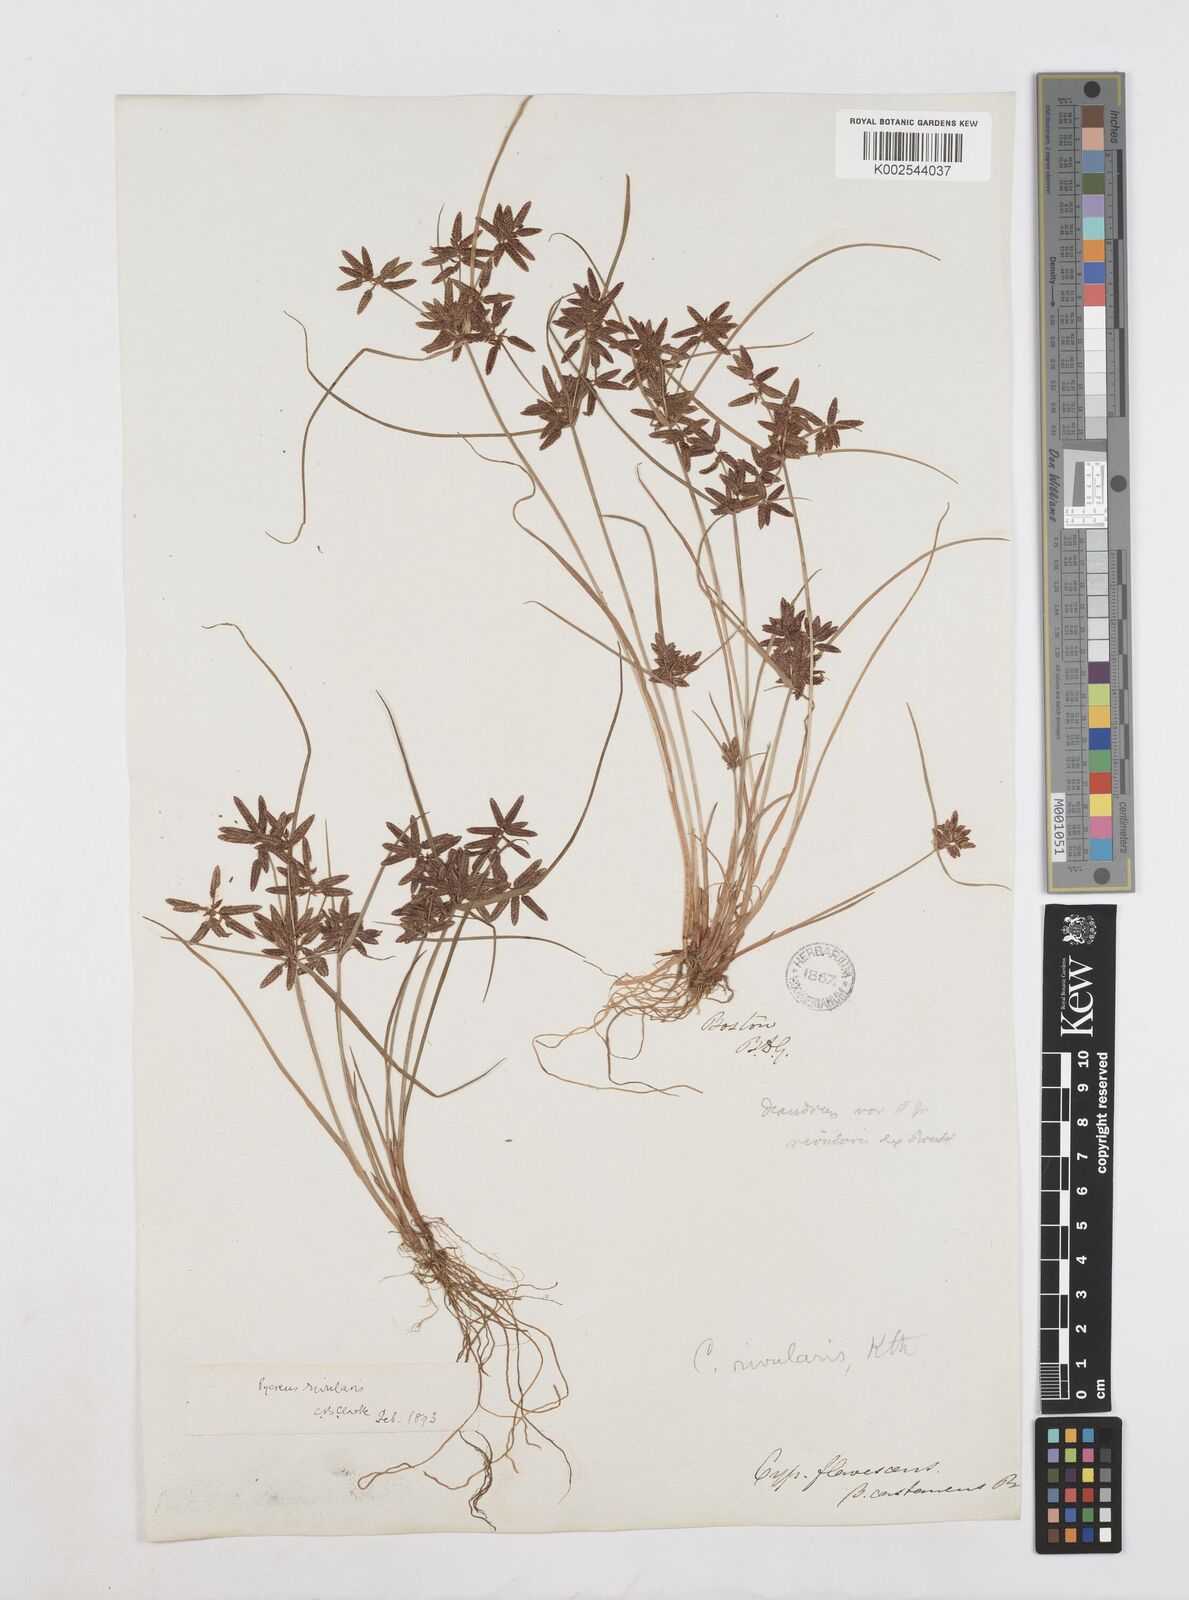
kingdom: Plantae
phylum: Tracheophyta
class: Liliopsida
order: Poales
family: Cyperaceae
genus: Cyperus
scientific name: Cyperus bipartitus
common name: Brook flatsedge
